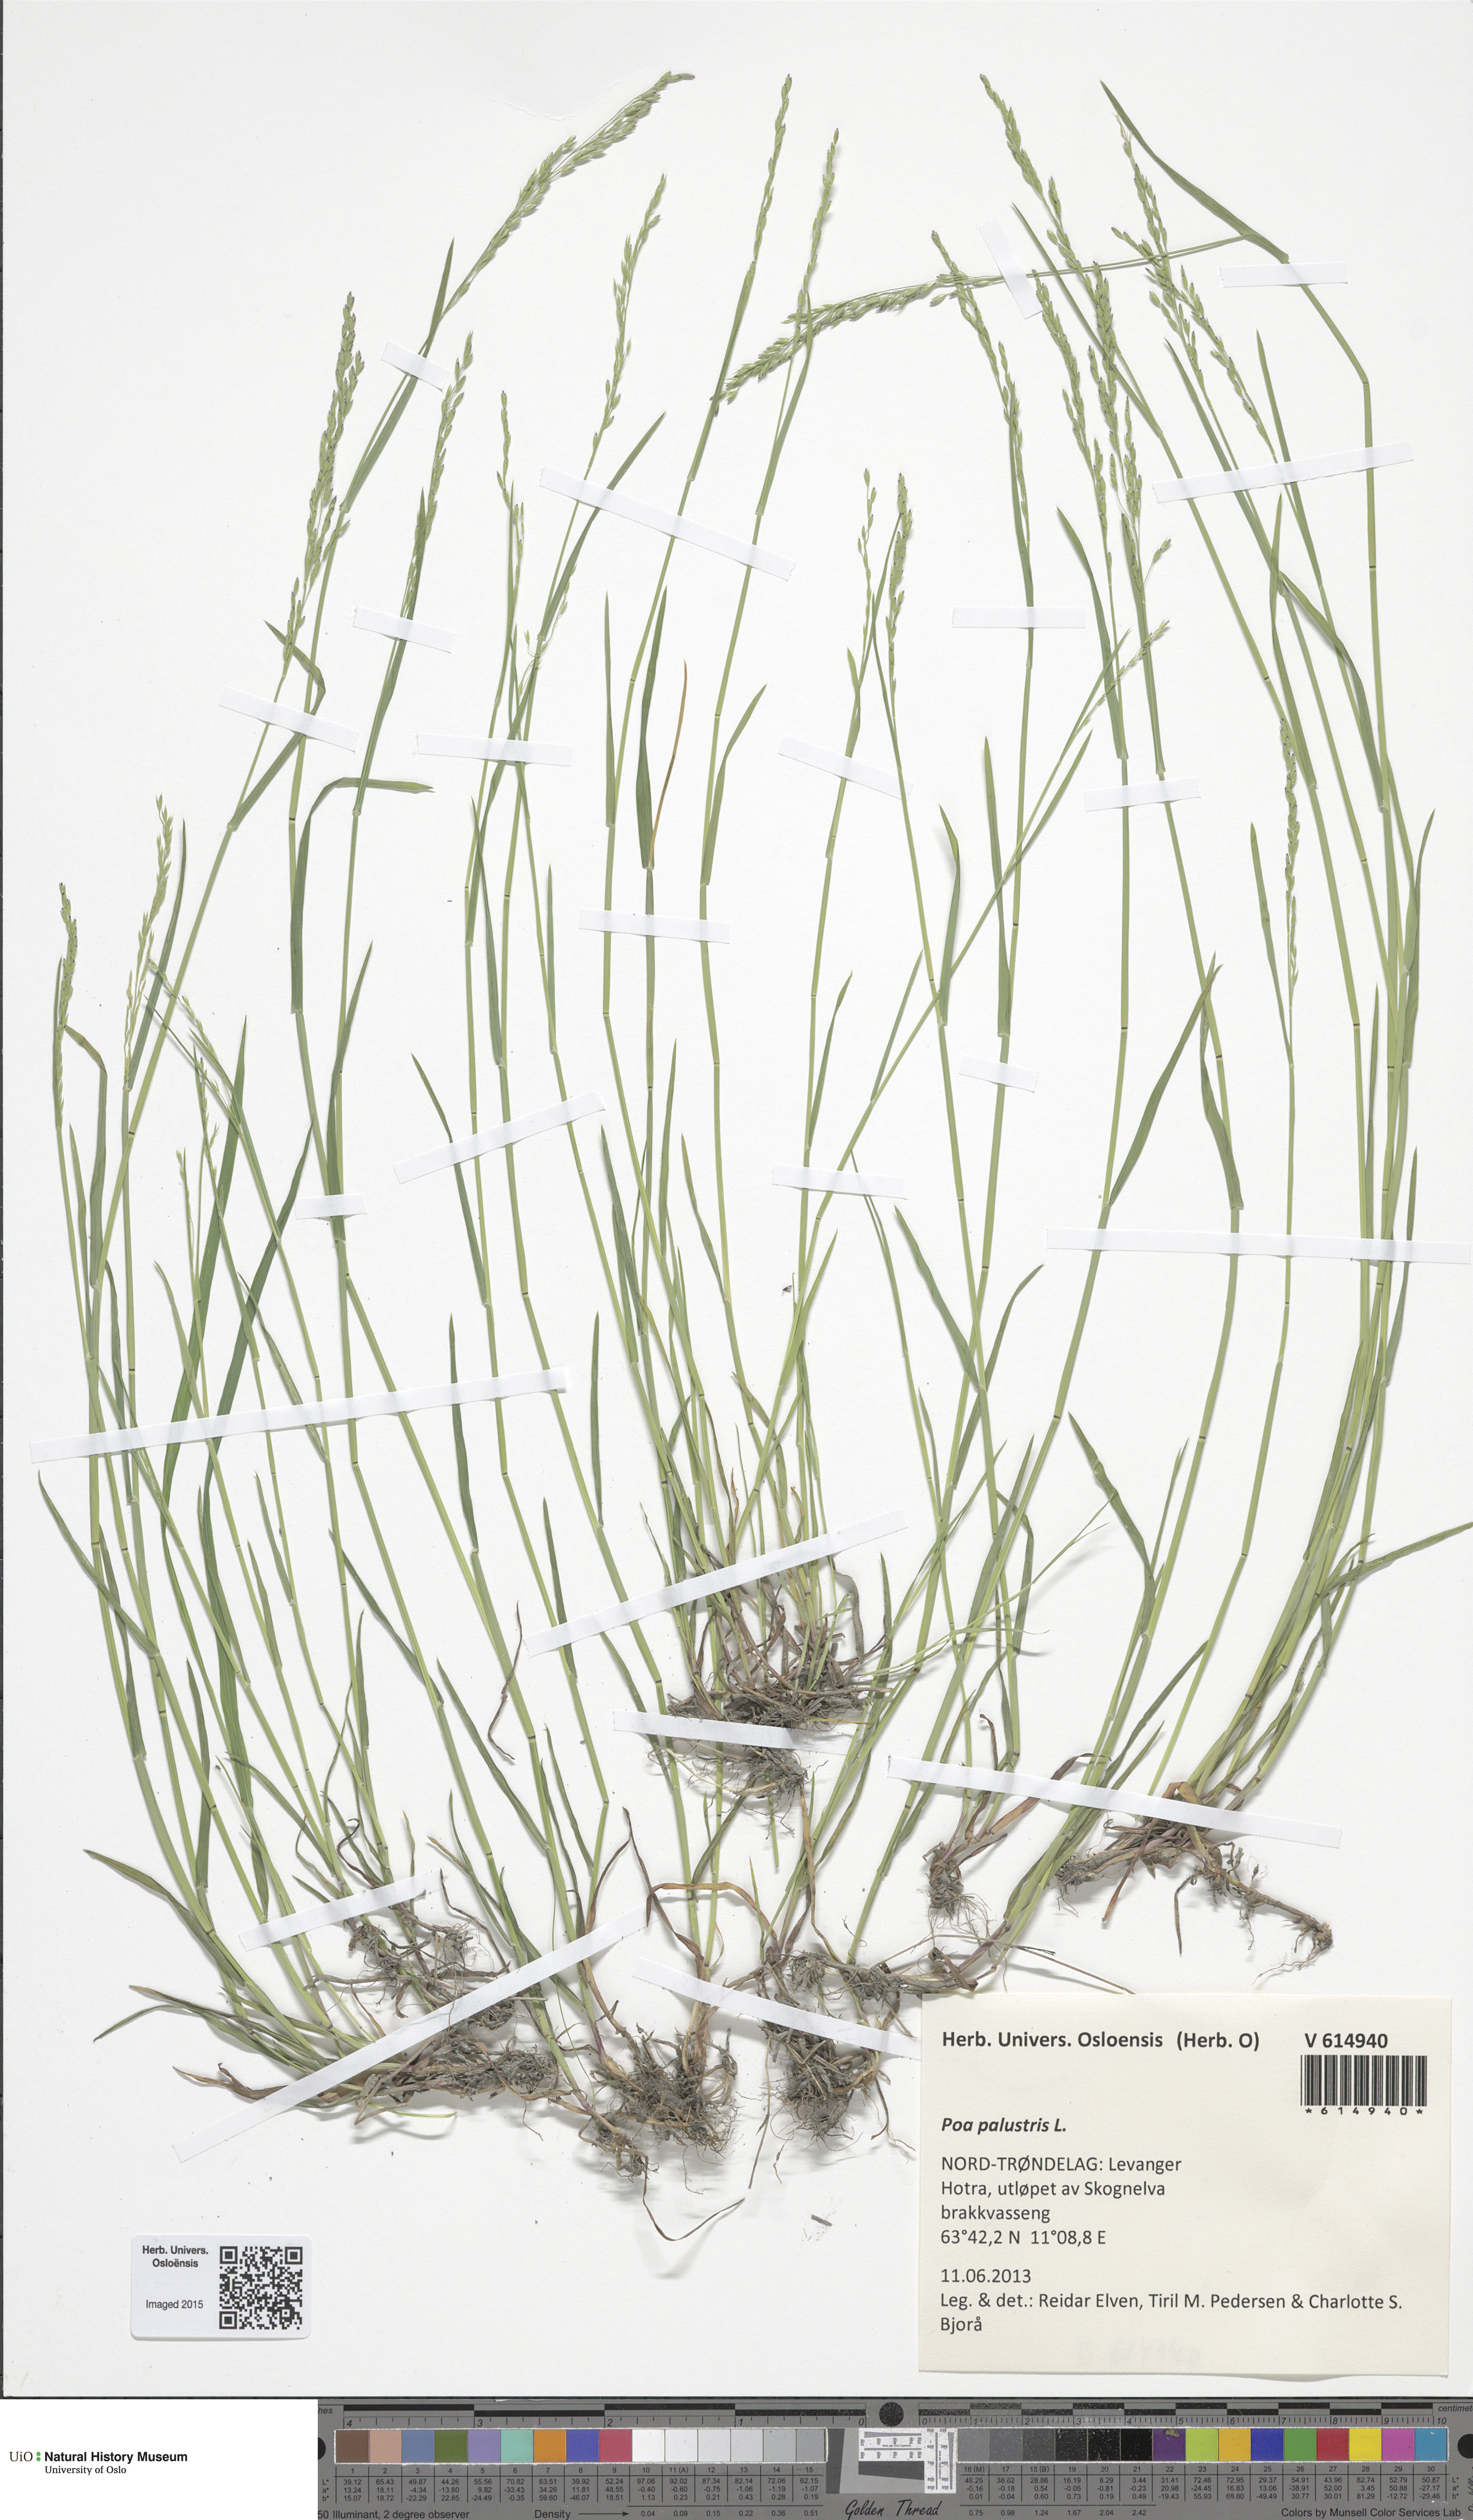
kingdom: Plantae
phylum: Tracheophyta
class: Liliopsida
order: Poales
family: Poaceae
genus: Poa
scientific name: Poa palustris
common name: Swamp meadow-grass
